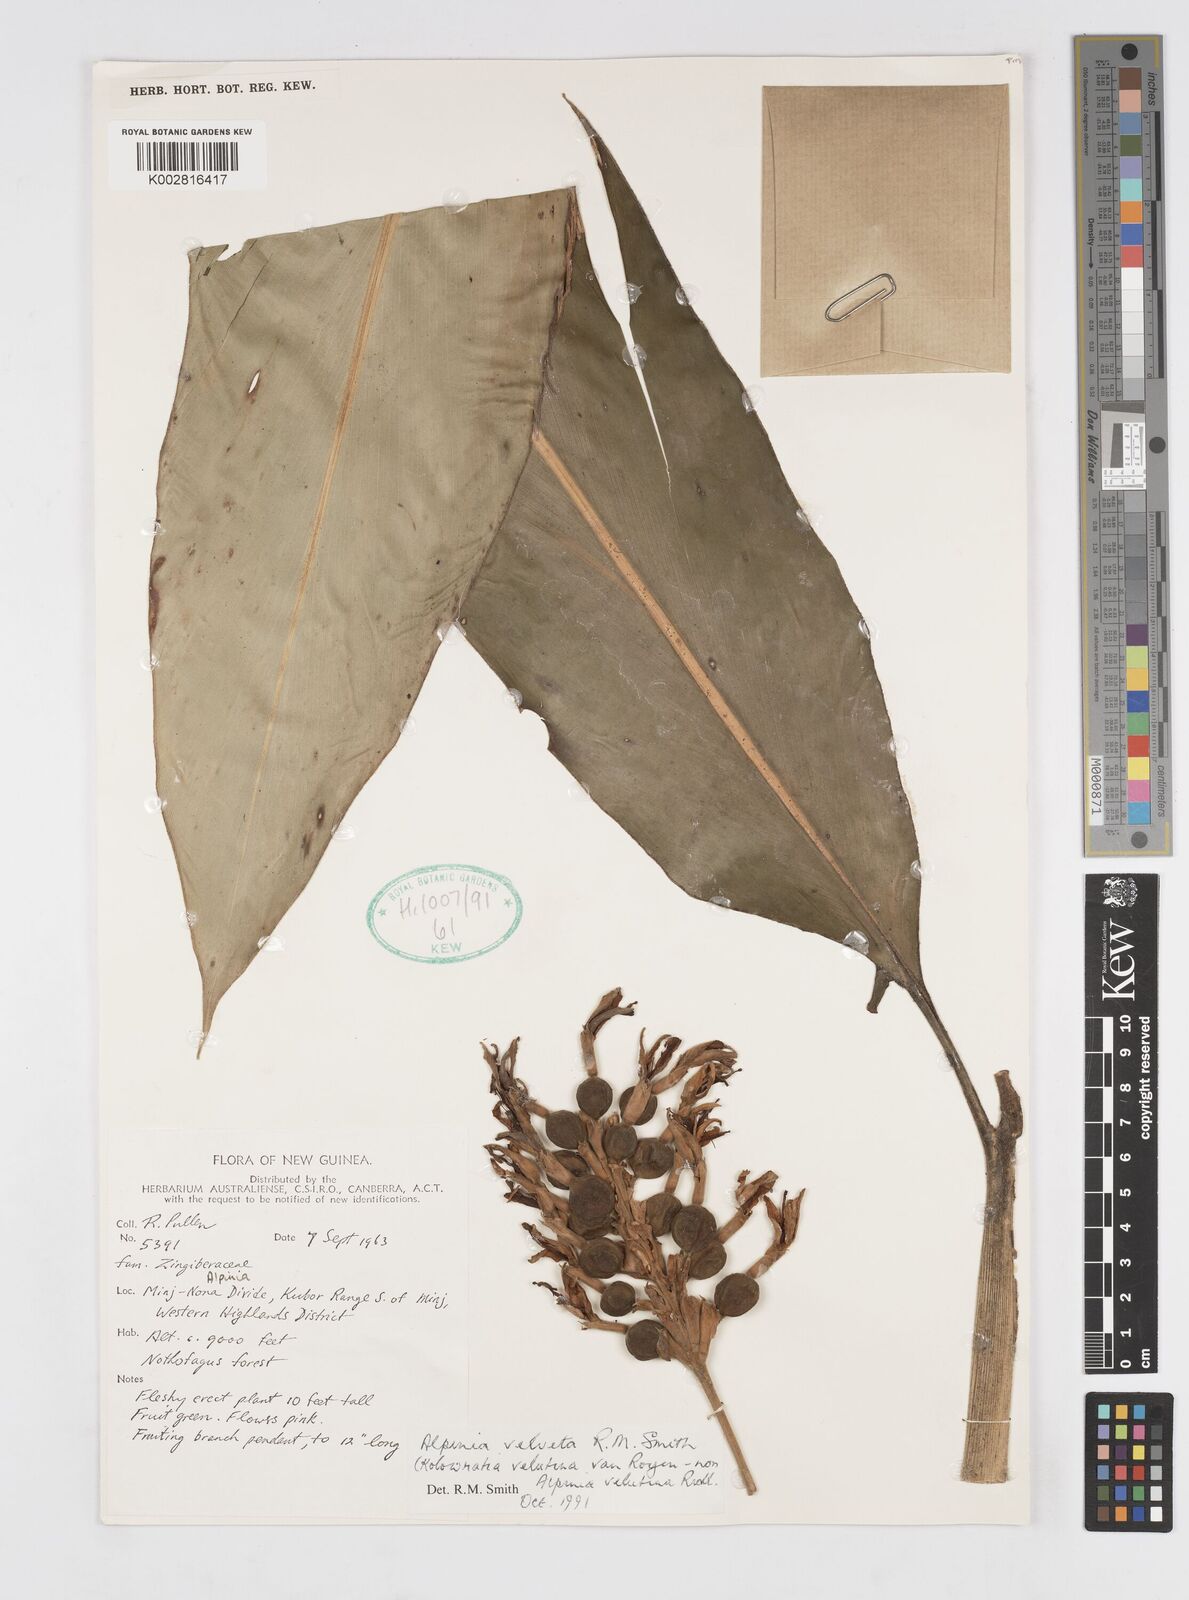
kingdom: Plantae
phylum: Tracheophyta
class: Liliopsida
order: Zingiberales
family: Zingiberaceae
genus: Alpinia
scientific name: Alpinia velveta
